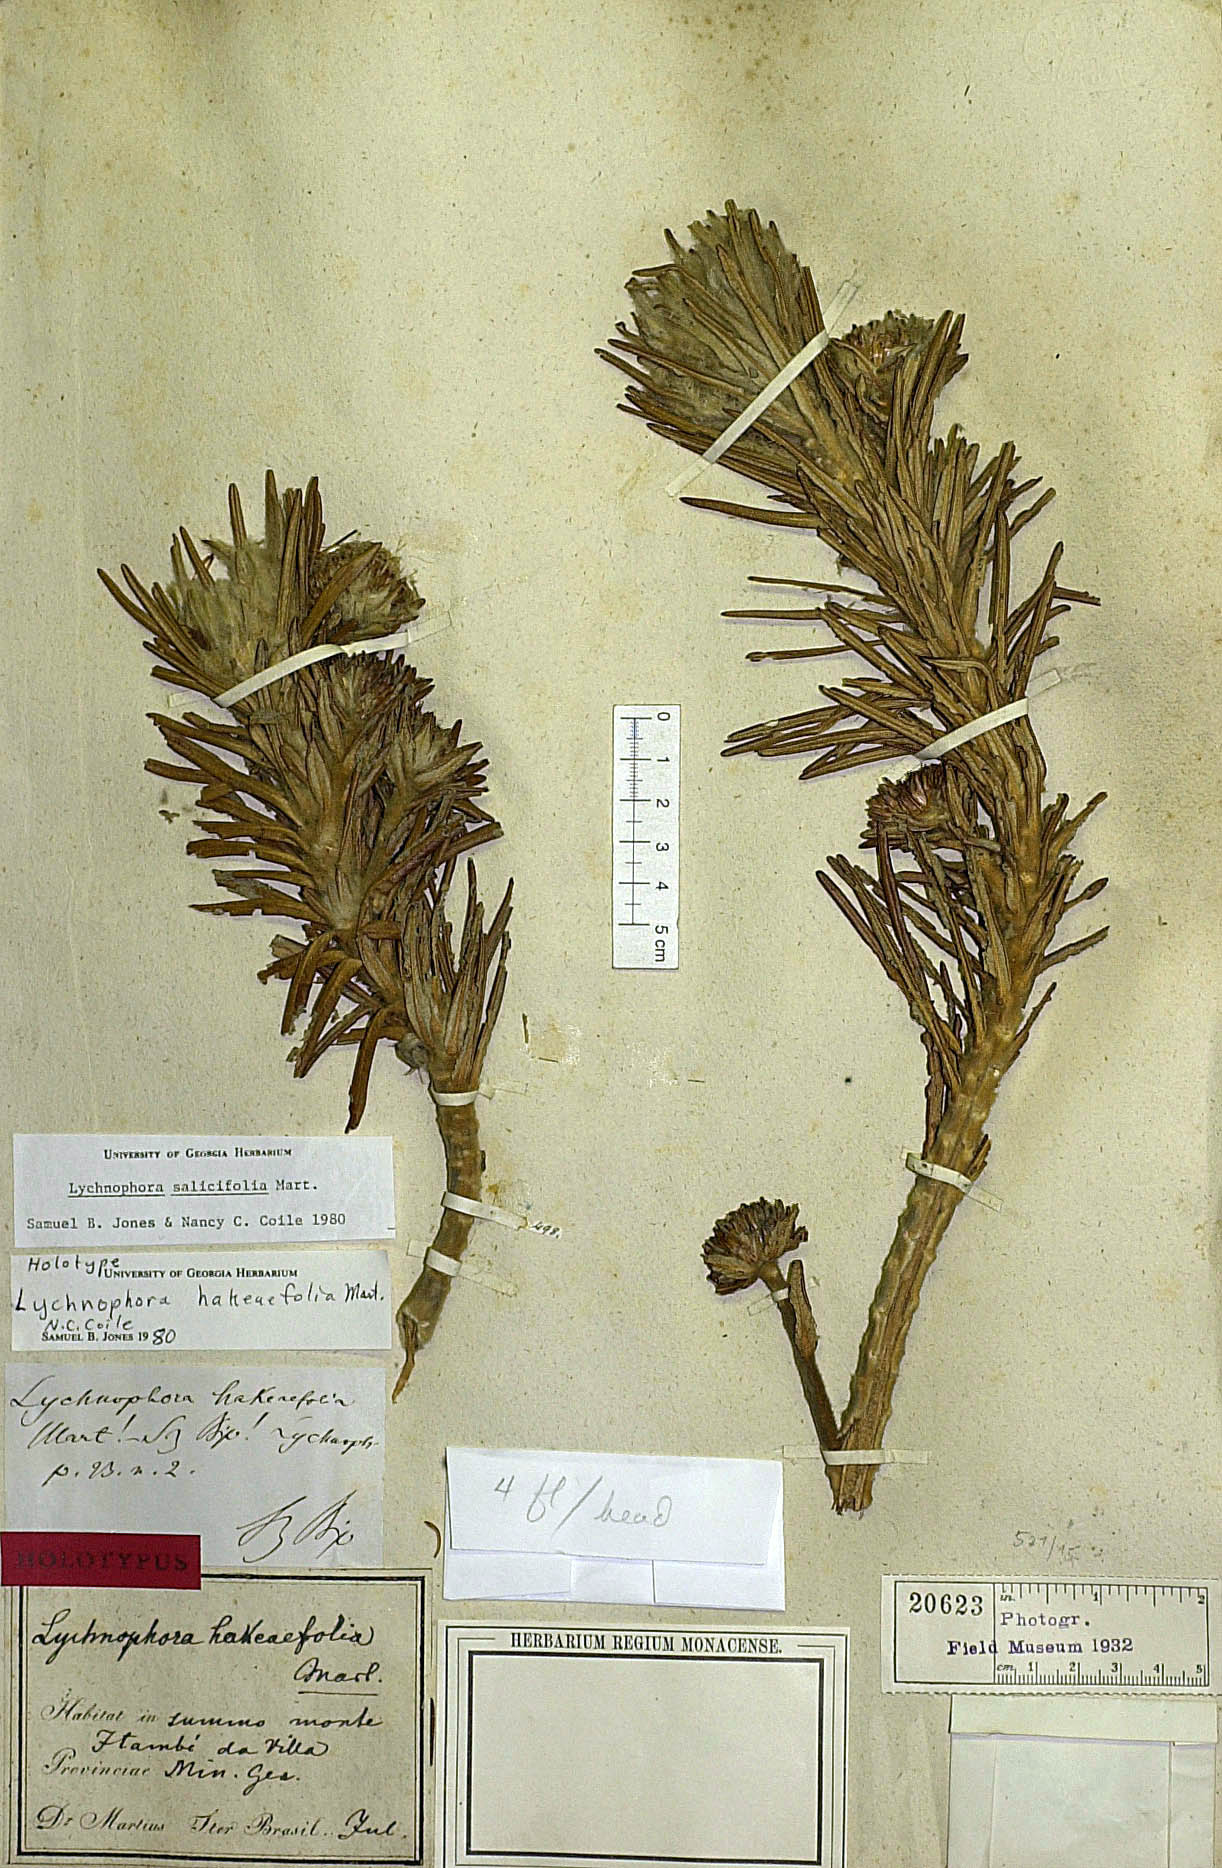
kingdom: Plantae
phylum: Tracheophyta
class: Magnoliopsida
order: Asterales
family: Asteraceae
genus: Lychnophora
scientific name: Lychnophora salicifolia
